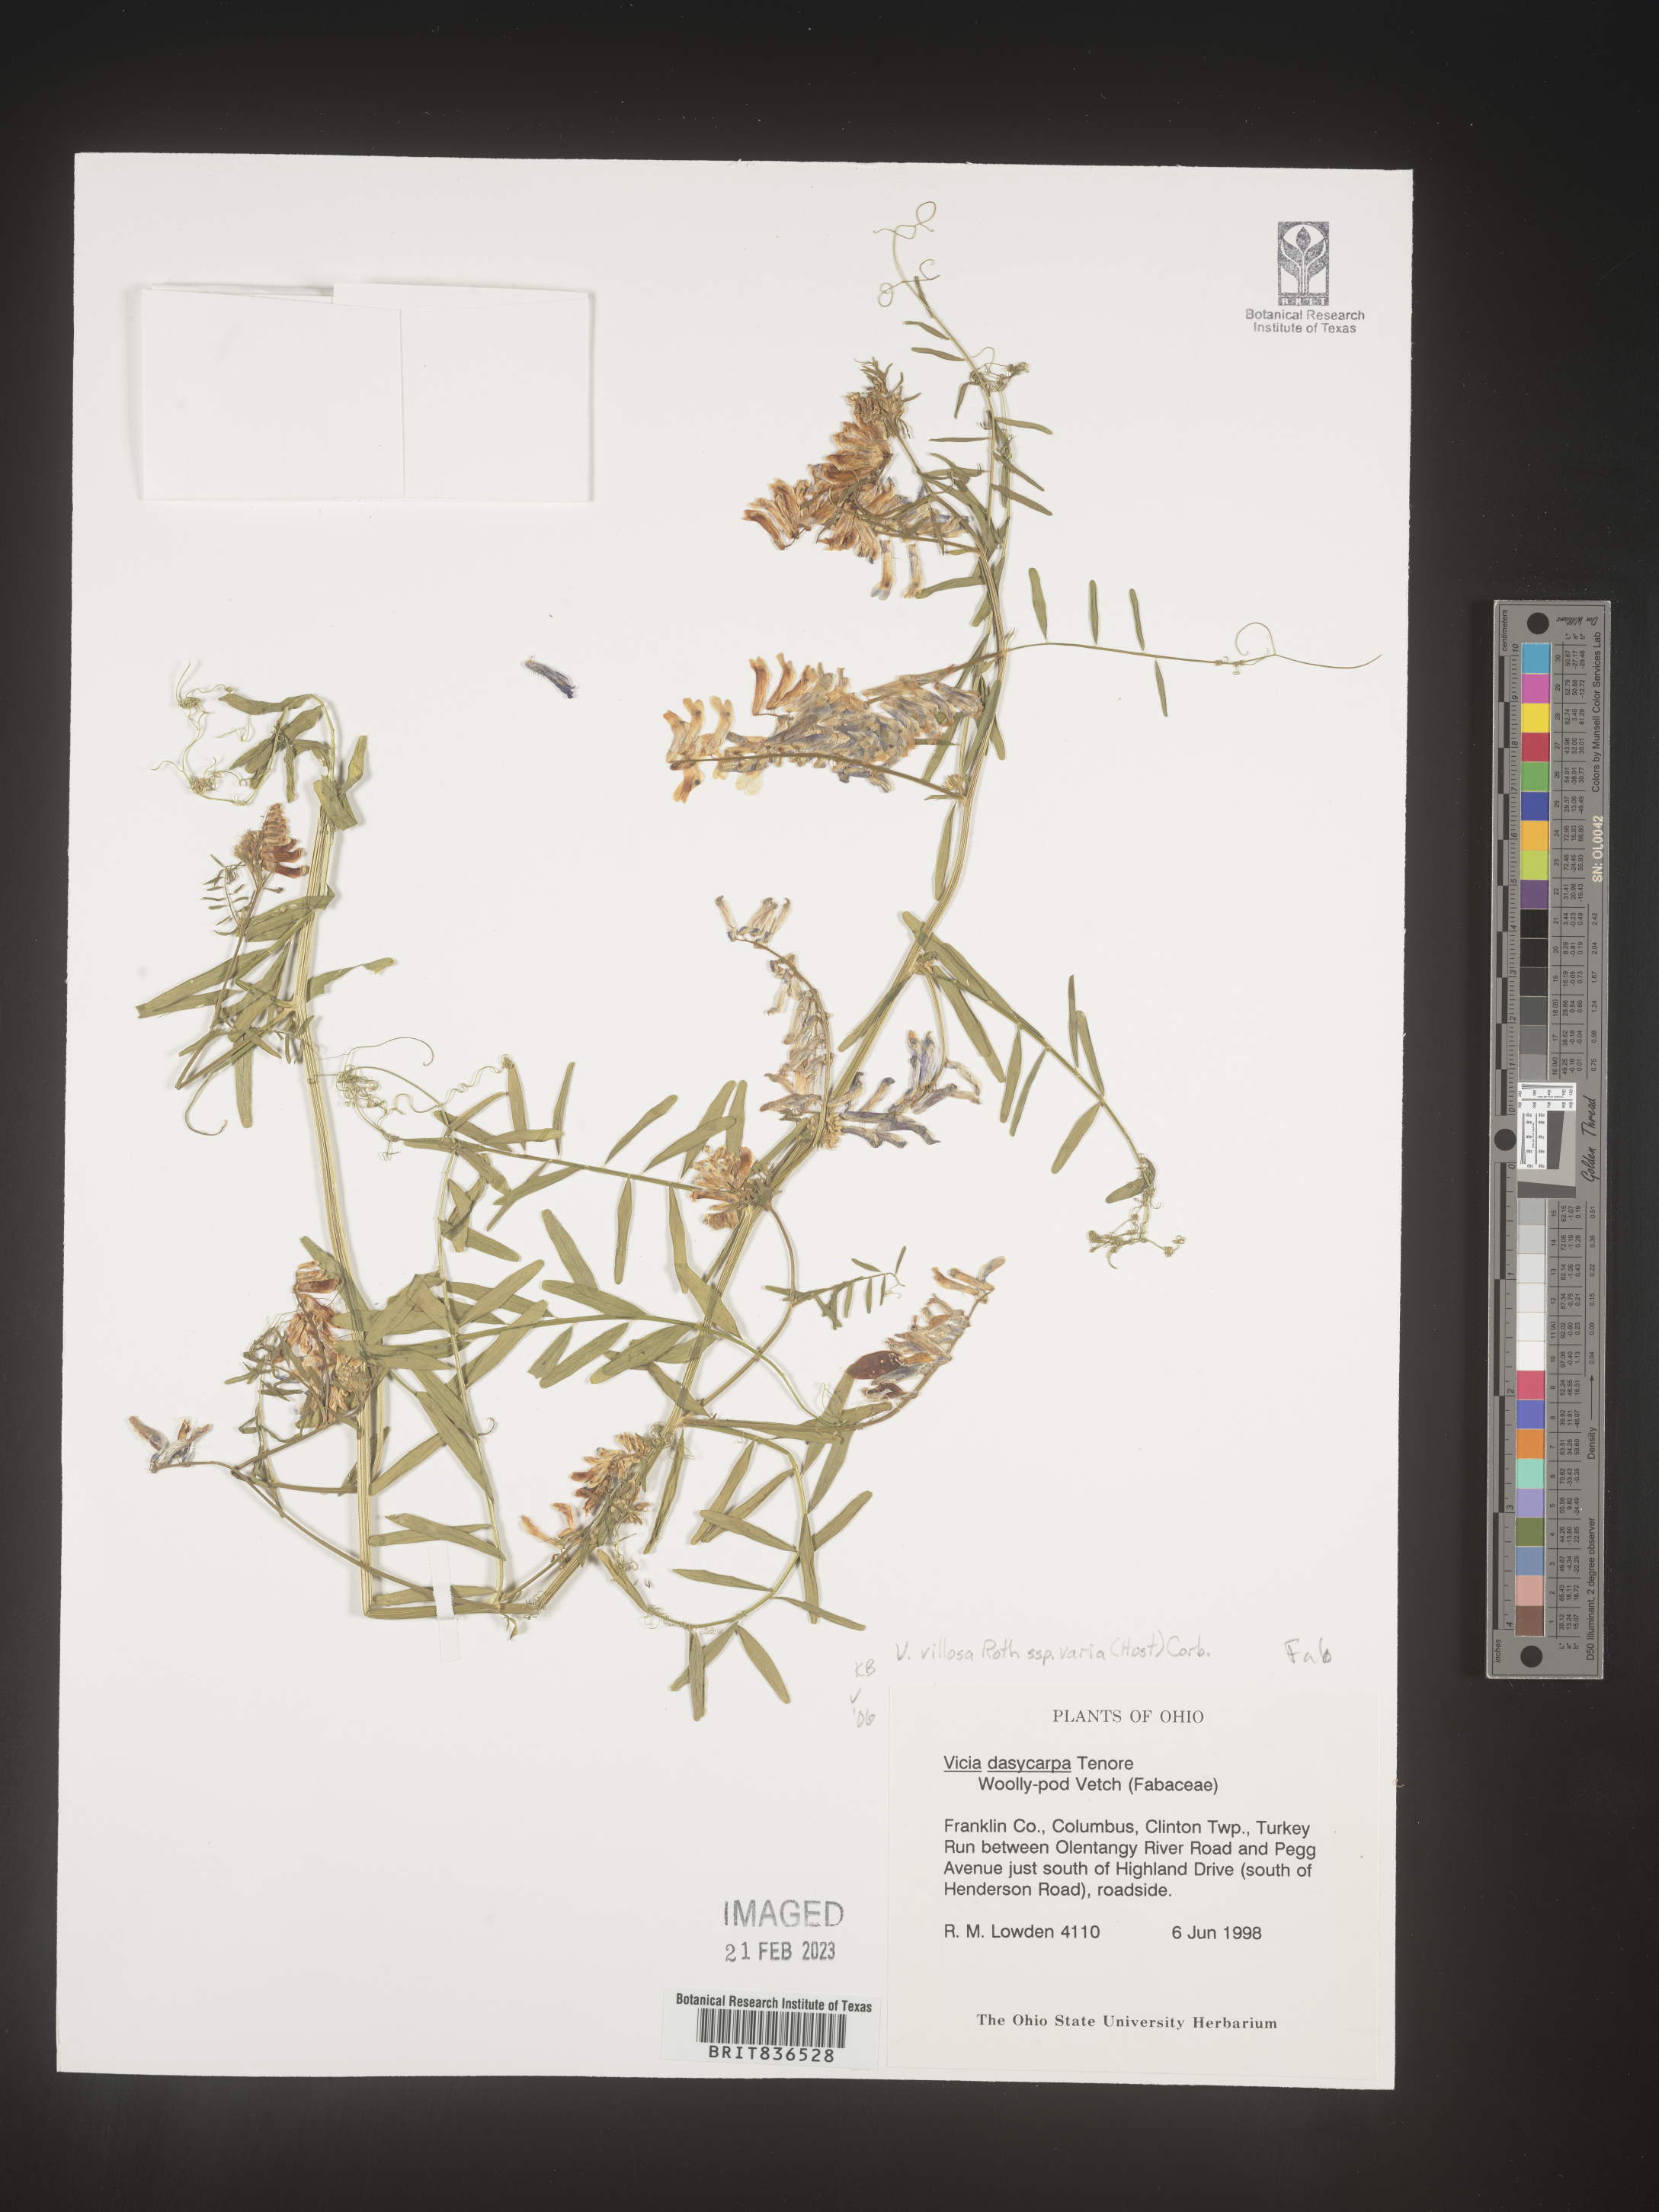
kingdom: Plantae
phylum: Tracheophyta
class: Magnoliopsida
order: Fabales
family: Fabaceae
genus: Vicia
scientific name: Vicia villosa
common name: Fodder vetch
